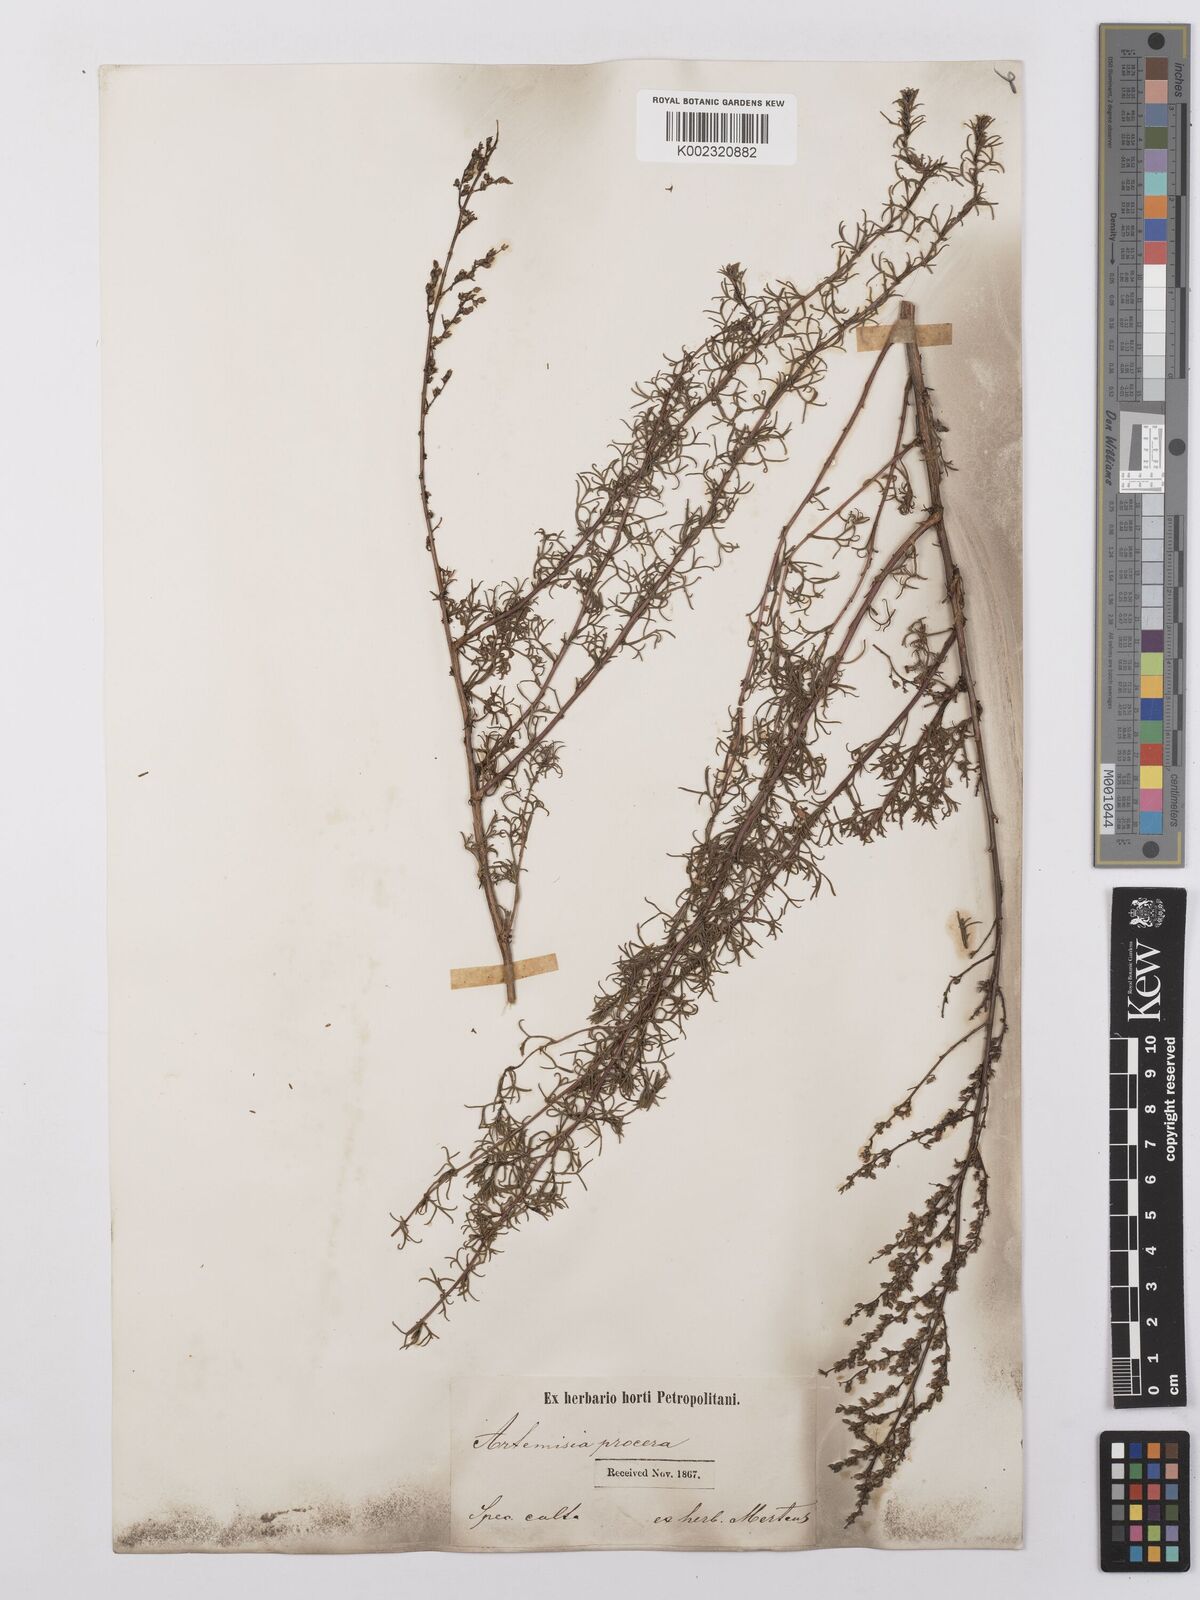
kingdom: Plantae
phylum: Tracheophyta
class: Magnoliopsida
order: Asterales
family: Asteraceae
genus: Artemisia
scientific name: Artemisia abrotanum
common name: Southernwood
